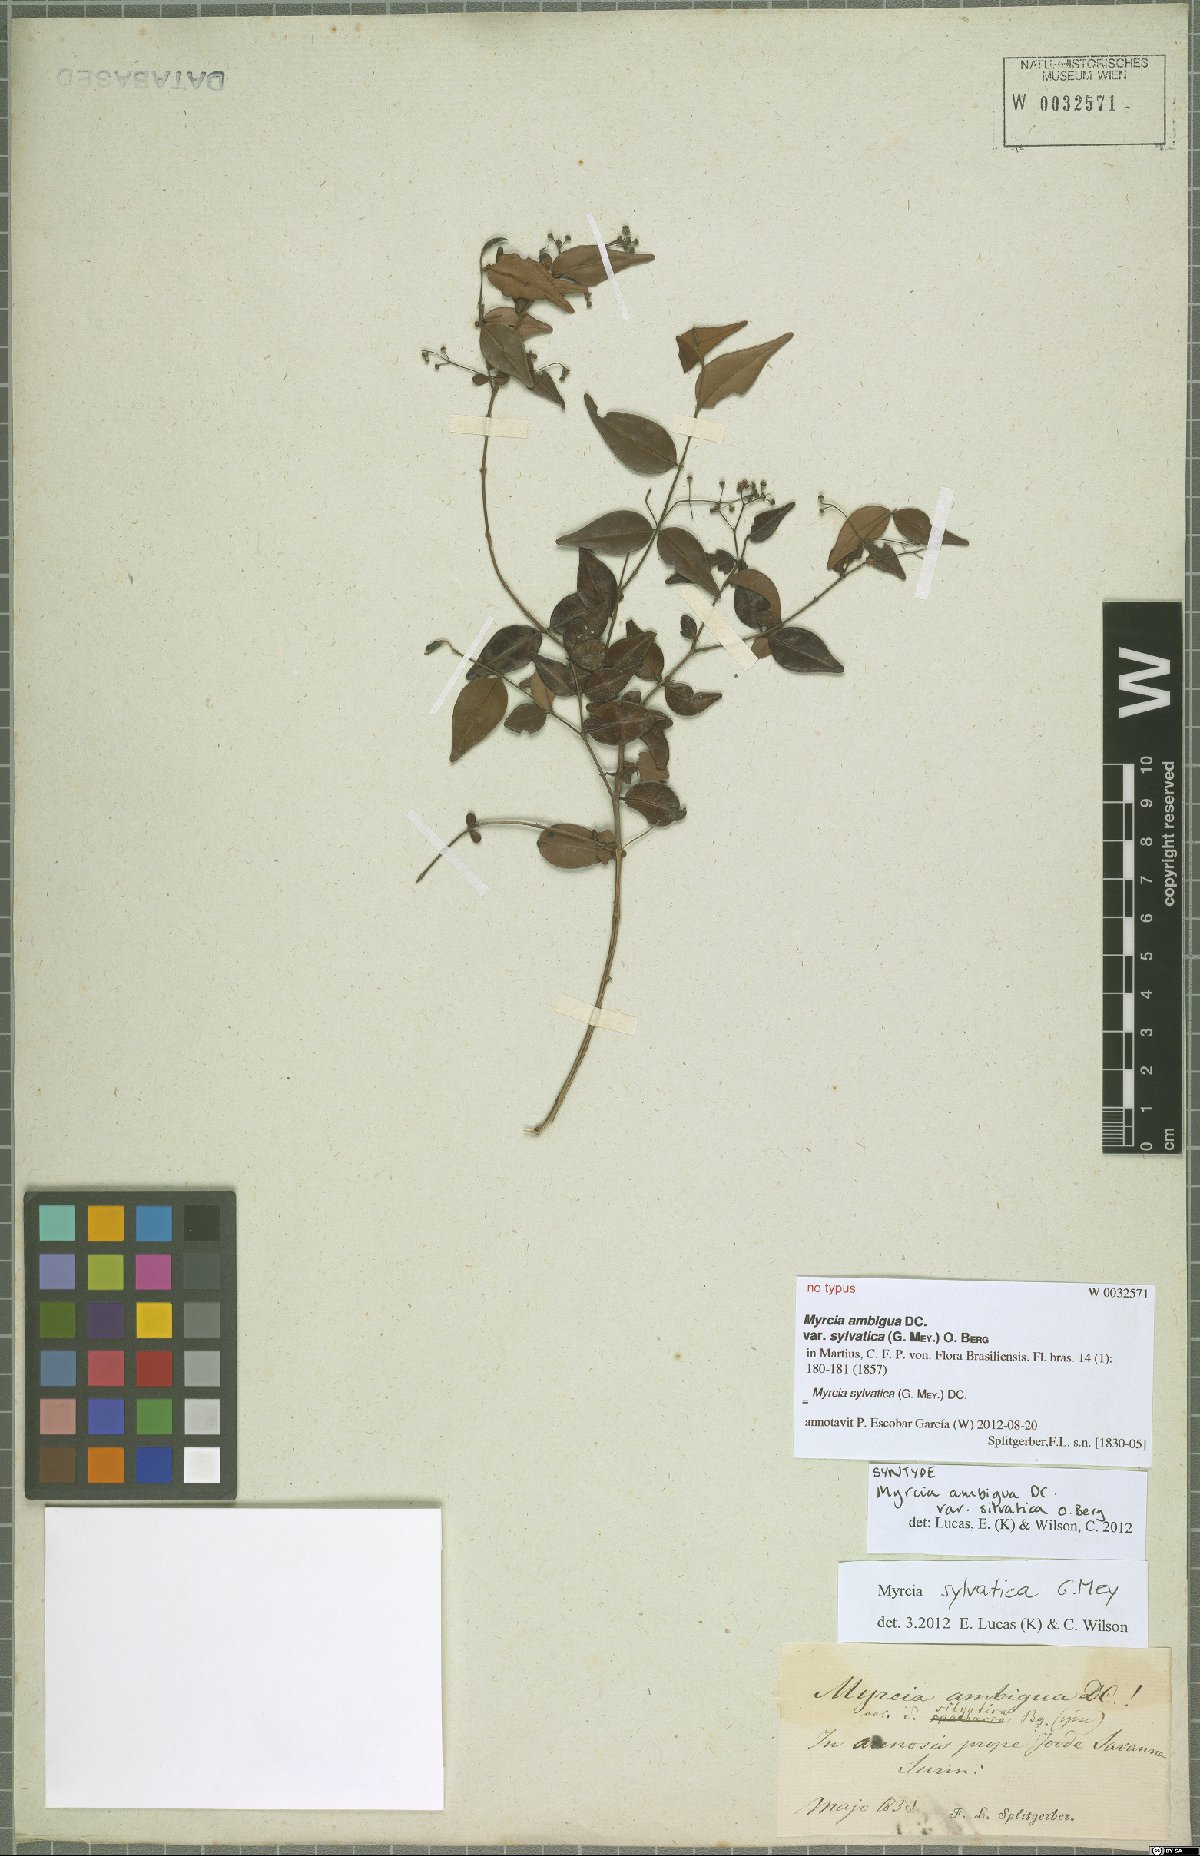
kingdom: Plantae
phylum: Tracheophyta
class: Magnoliopsida
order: Myrtales
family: Myrtaceae
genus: Myrcia
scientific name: Myrcia sylvatica
